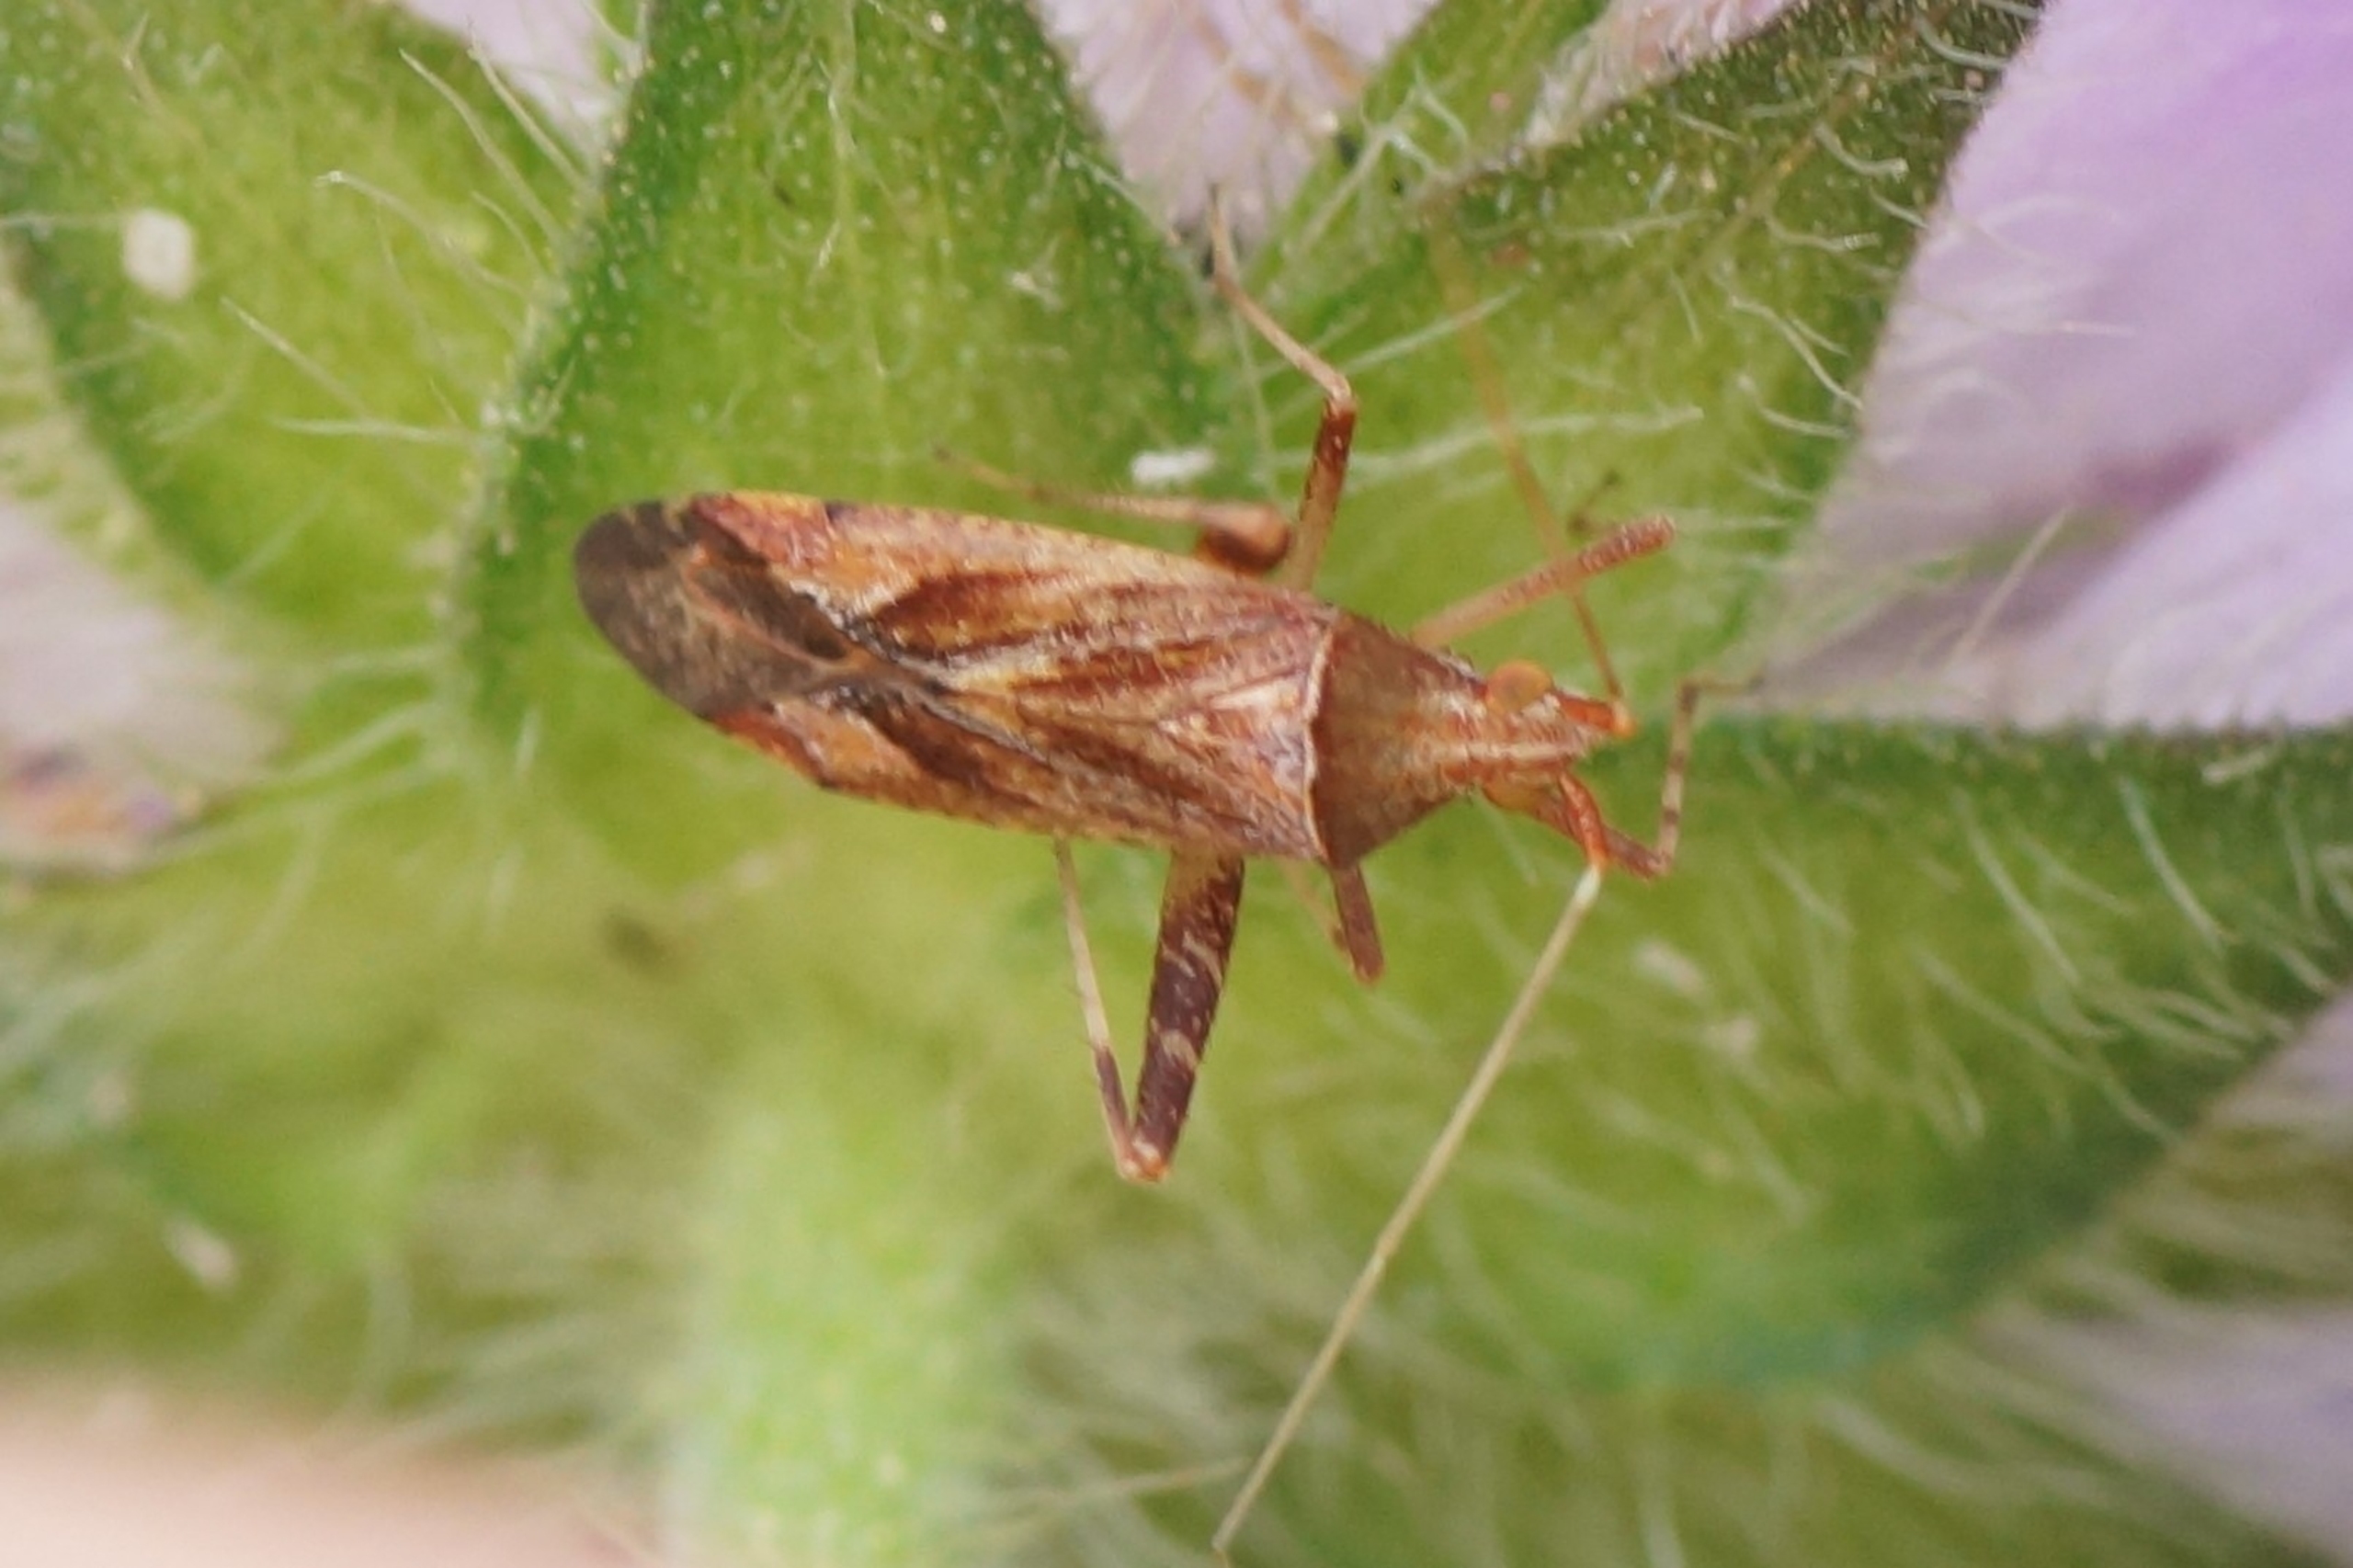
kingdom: Animalia
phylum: Arthropoda
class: Insecta
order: Hemiptera
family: Miridae
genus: Phytocoris
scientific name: Phytocoris varipes
